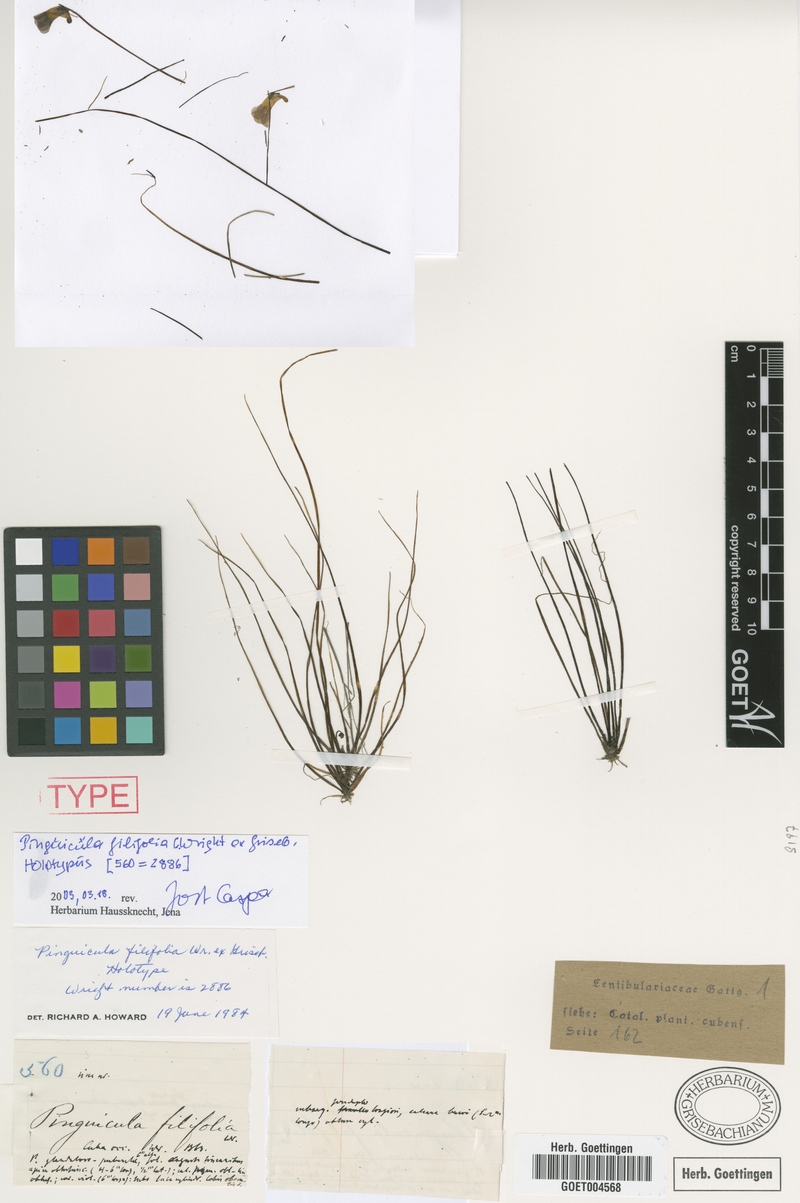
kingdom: Plantae
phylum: Tracheophyta
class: Magnoliopsida
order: Lamiales
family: Lentibulariaceae
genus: Pinguicula
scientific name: Pinguicula filifolia
